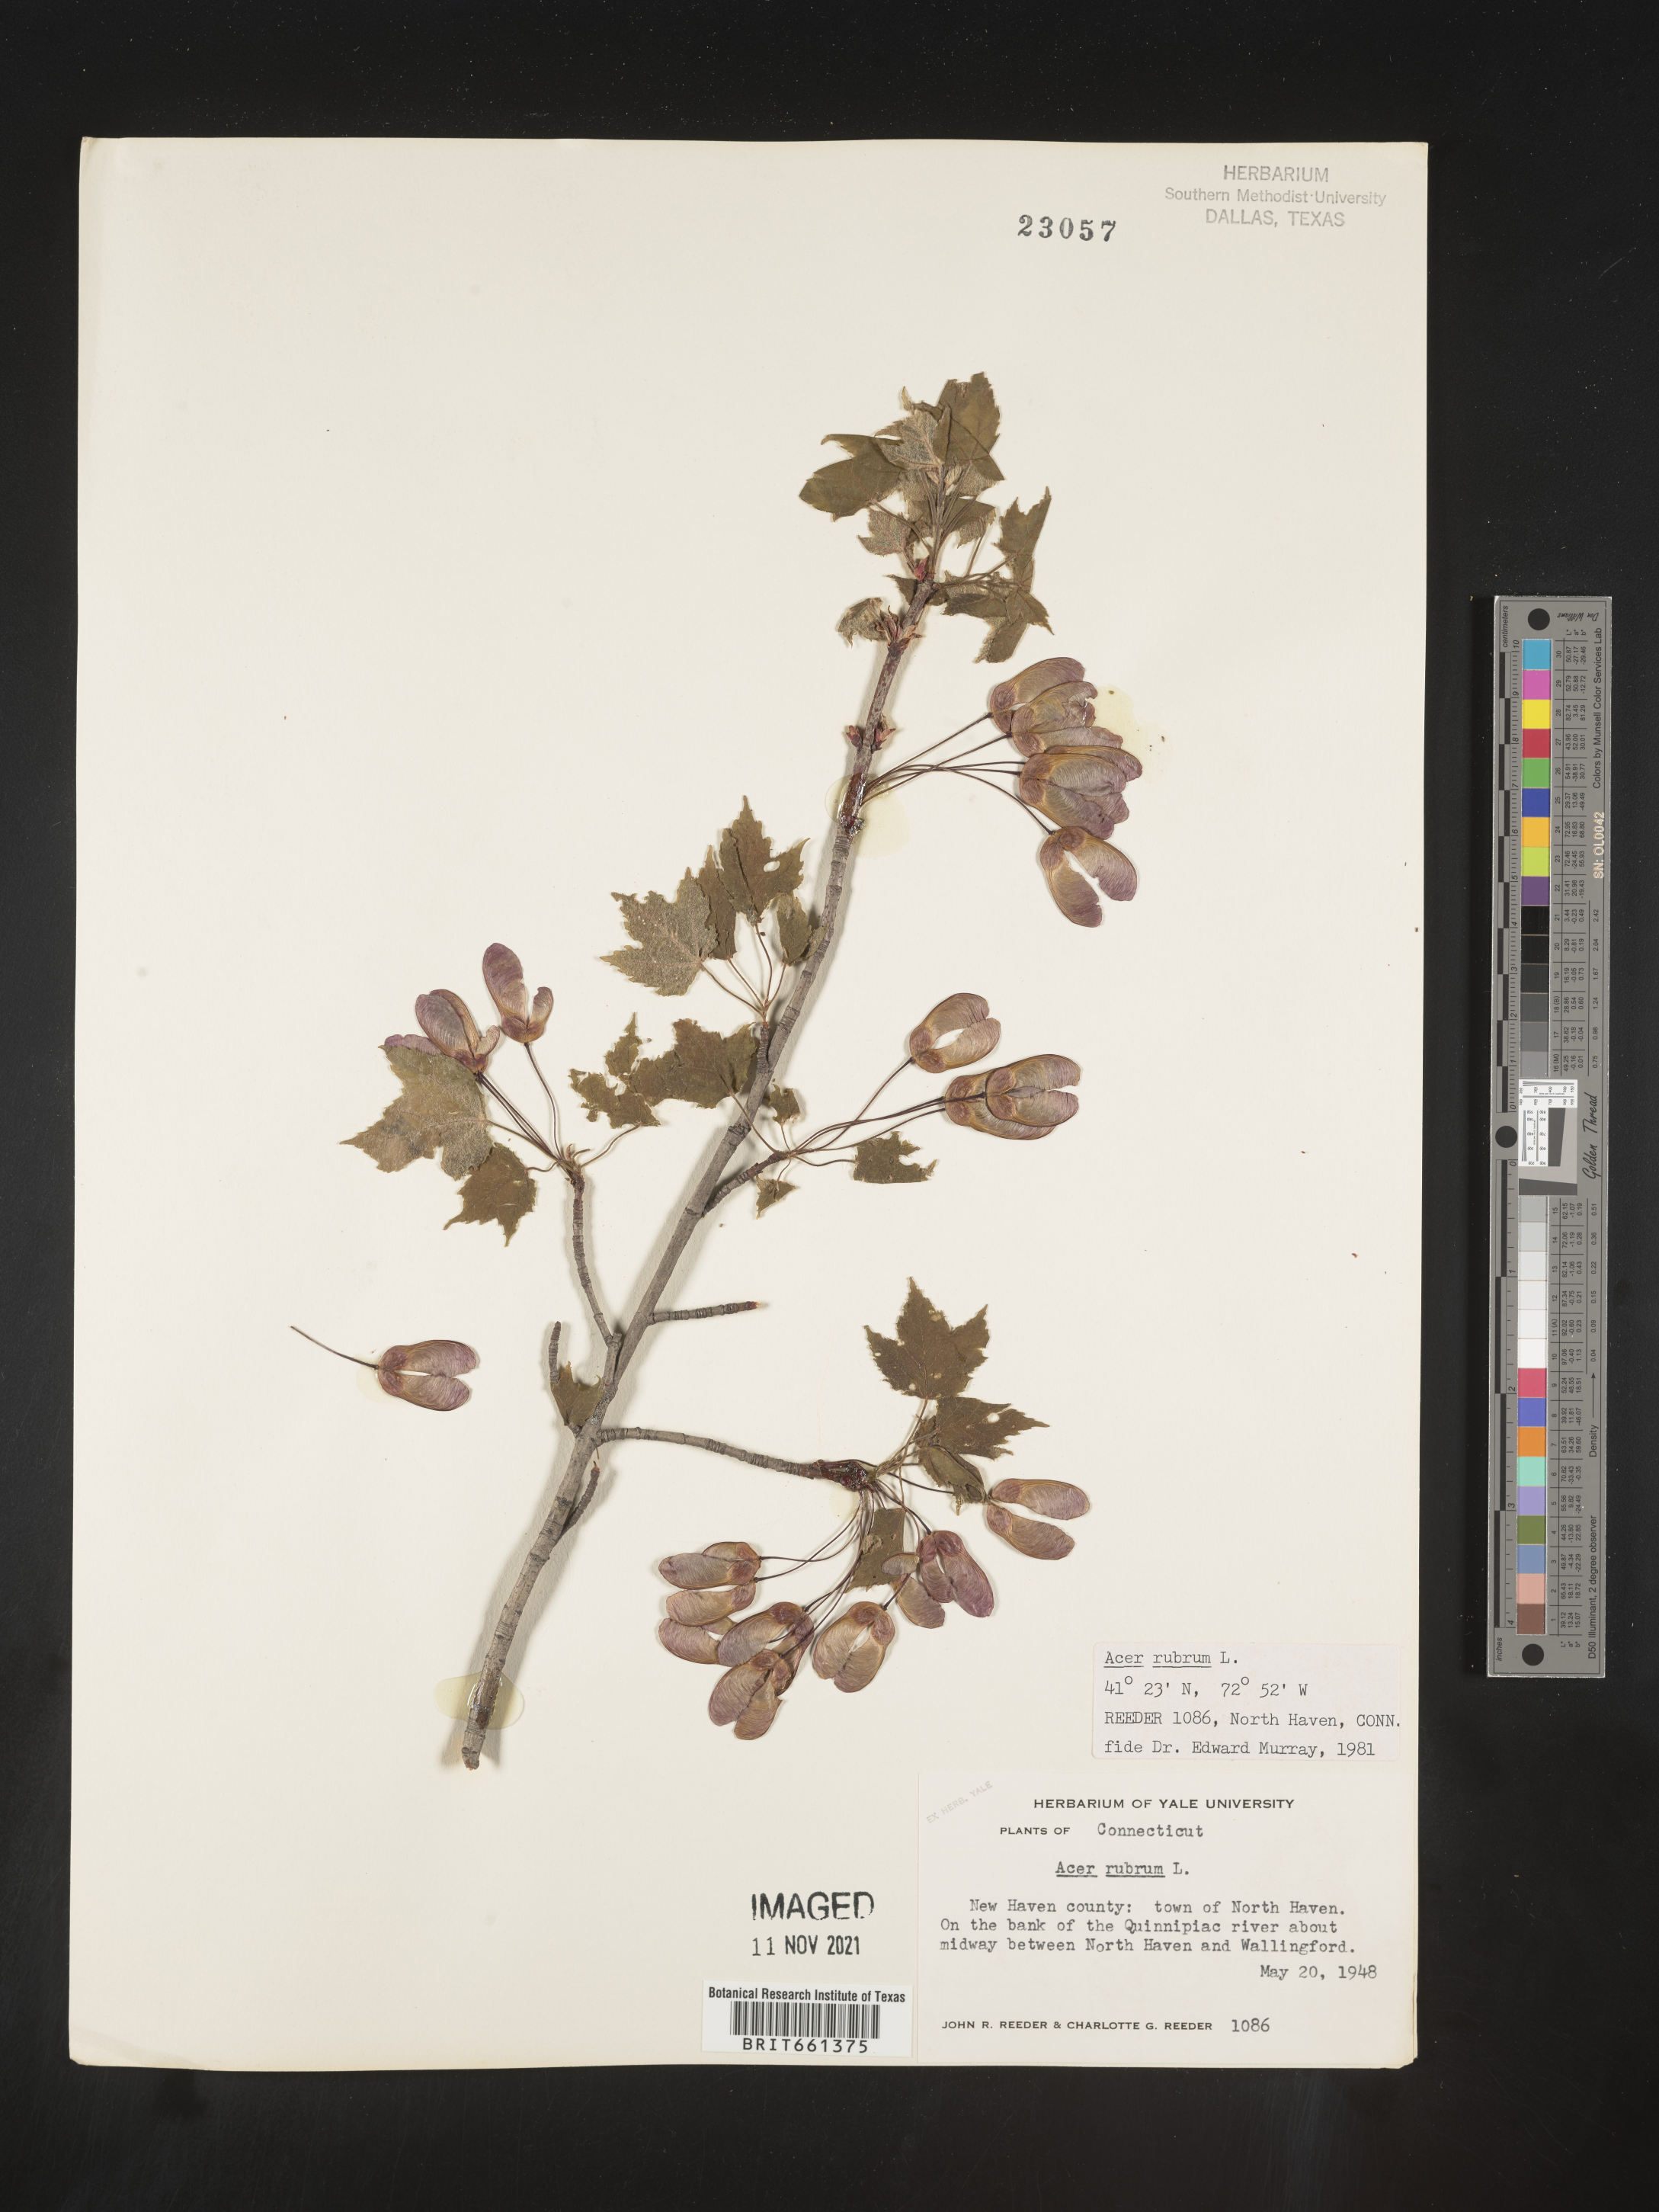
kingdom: Plantae
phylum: Tracheophyta
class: Magnoliopsida
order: Sapindales
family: Sapindaceae
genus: Acer
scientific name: Acer rubrum
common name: Red maple
